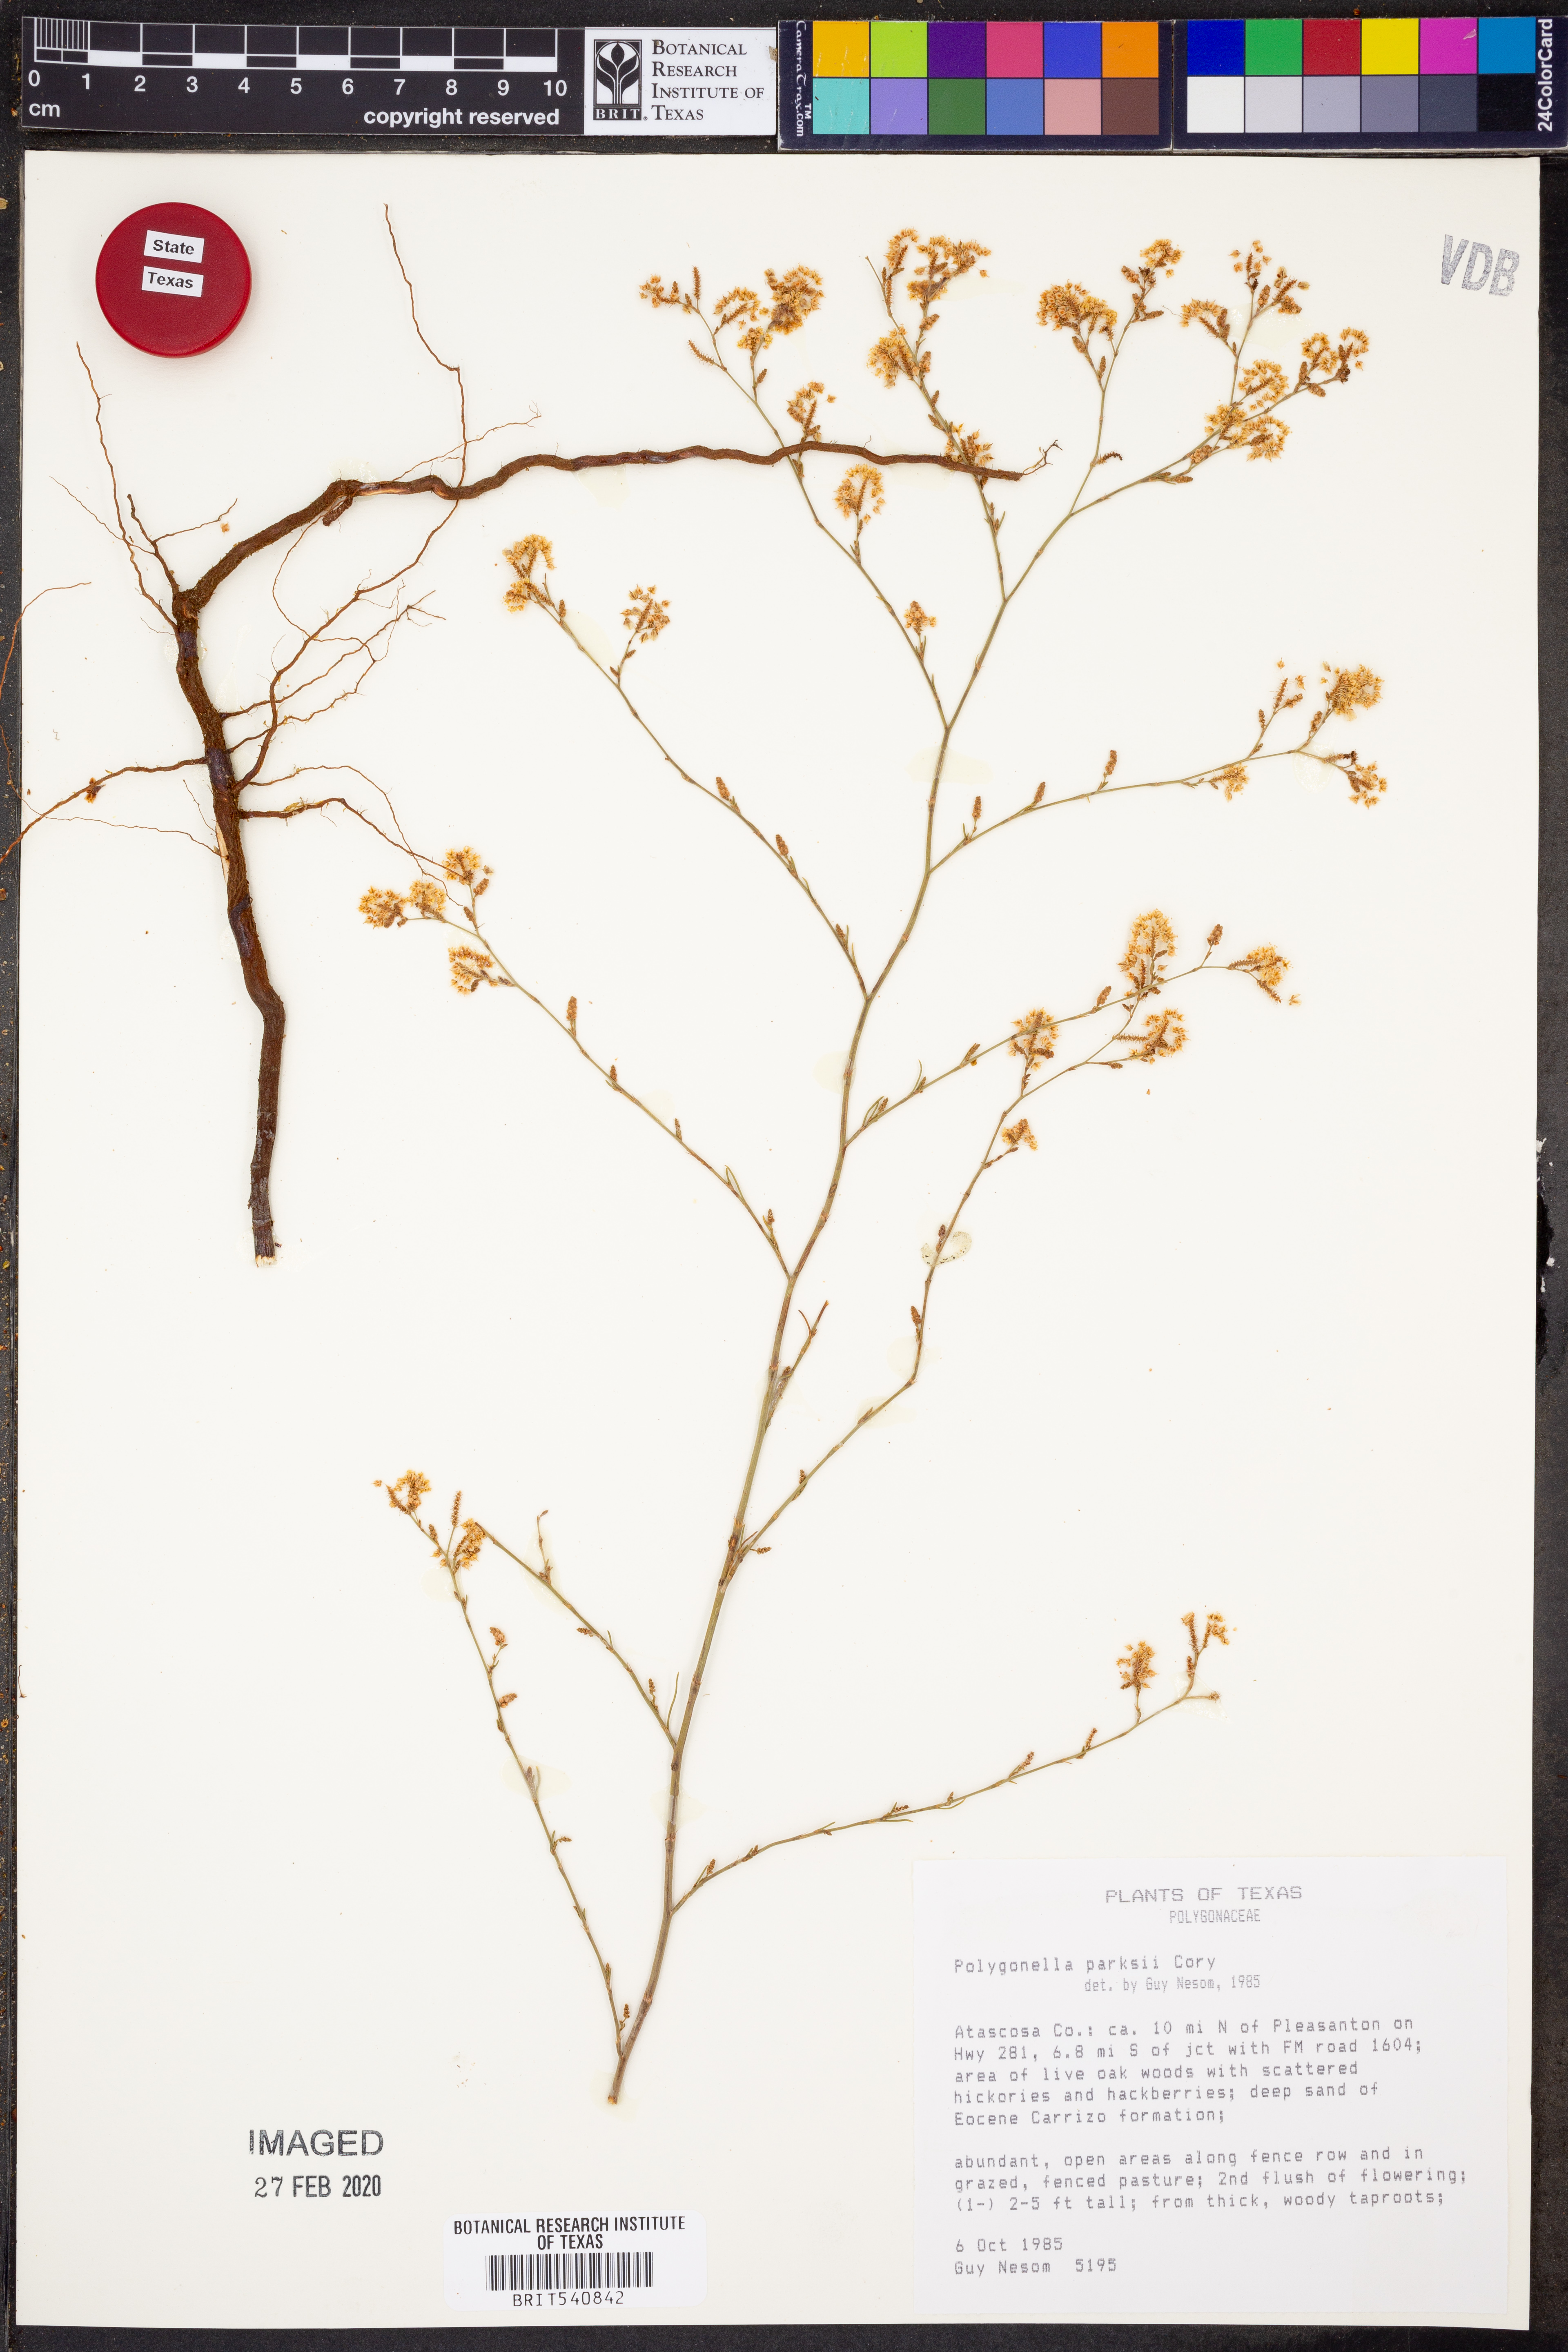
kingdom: Plantae
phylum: Tracheophyta
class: Magnoliopsida
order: Caryophyllales
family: Polygonaceae
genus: Polygonella
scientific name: Polygonella parksii
